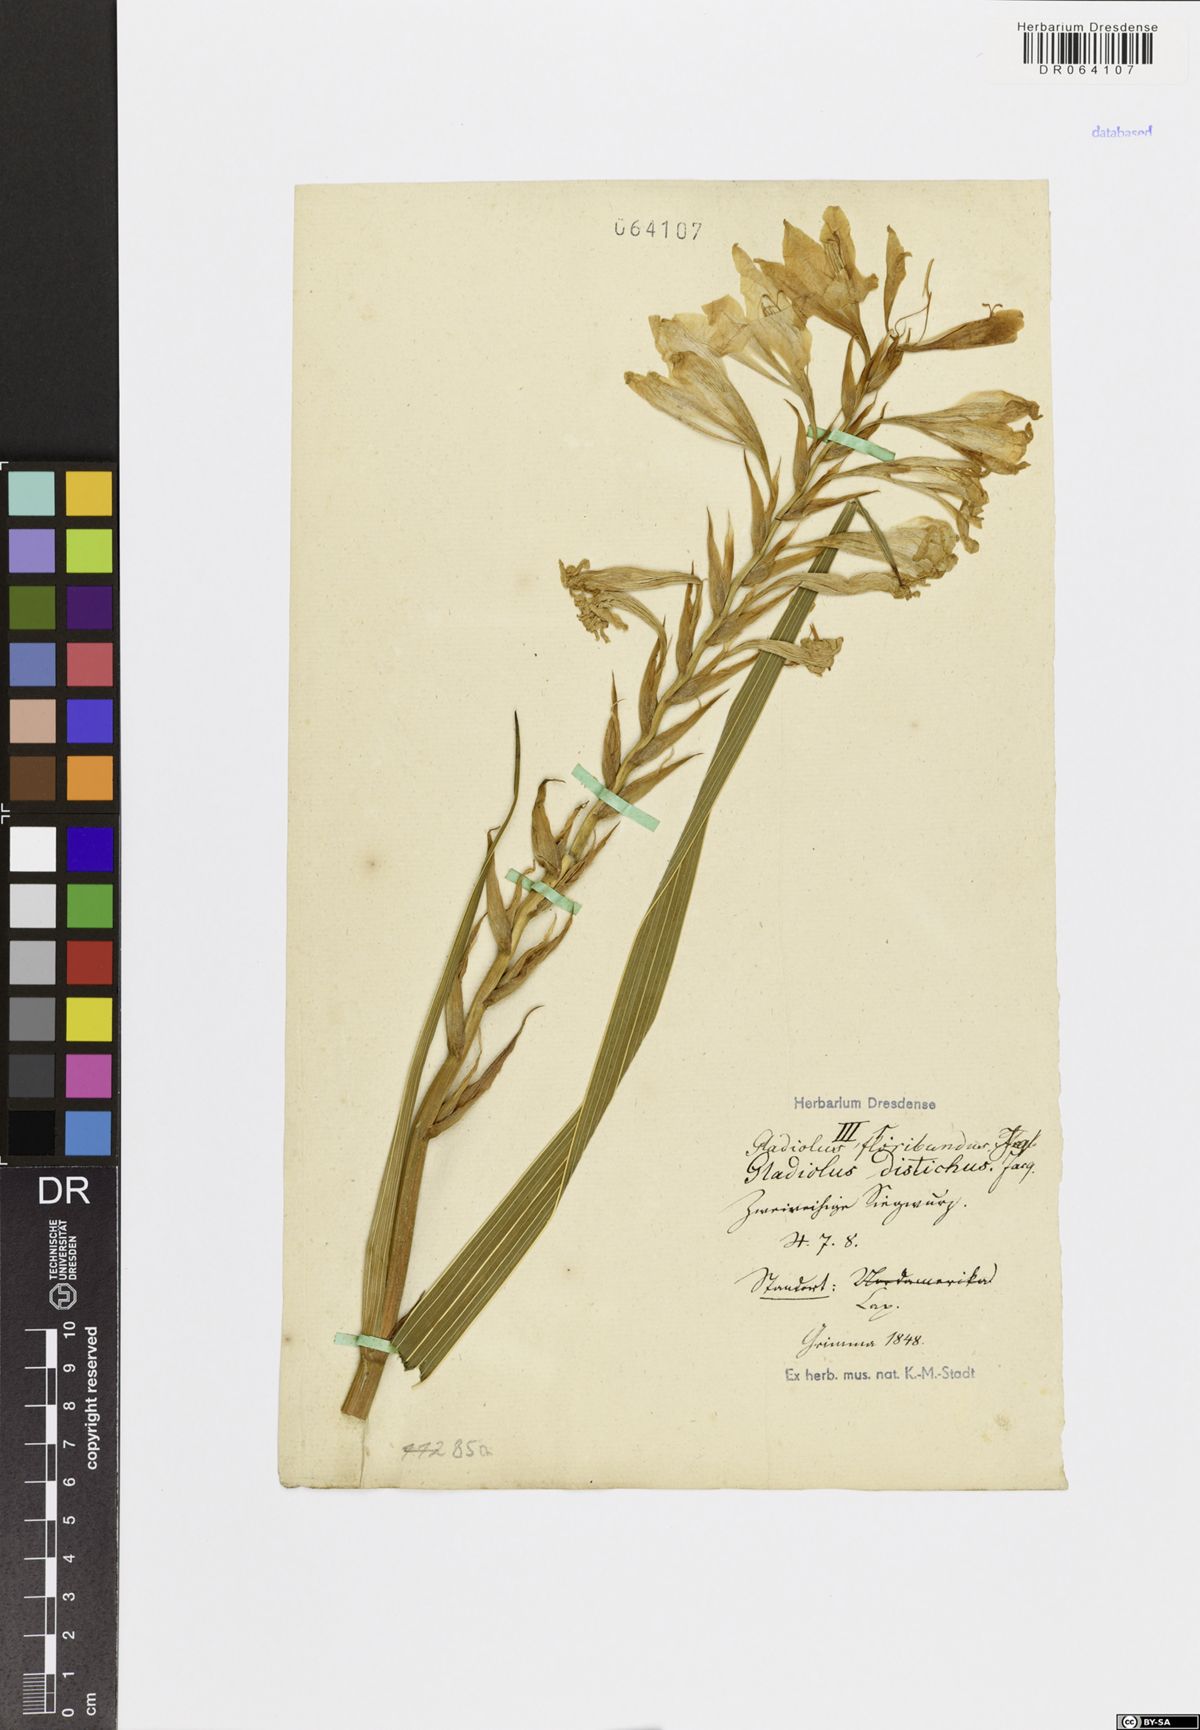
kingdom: Plantae
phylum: Tracheophyta
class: Liliopsida
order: Asparagales
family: Iridaceae
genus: Gladiolus
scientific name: Gladiolus floribundus
